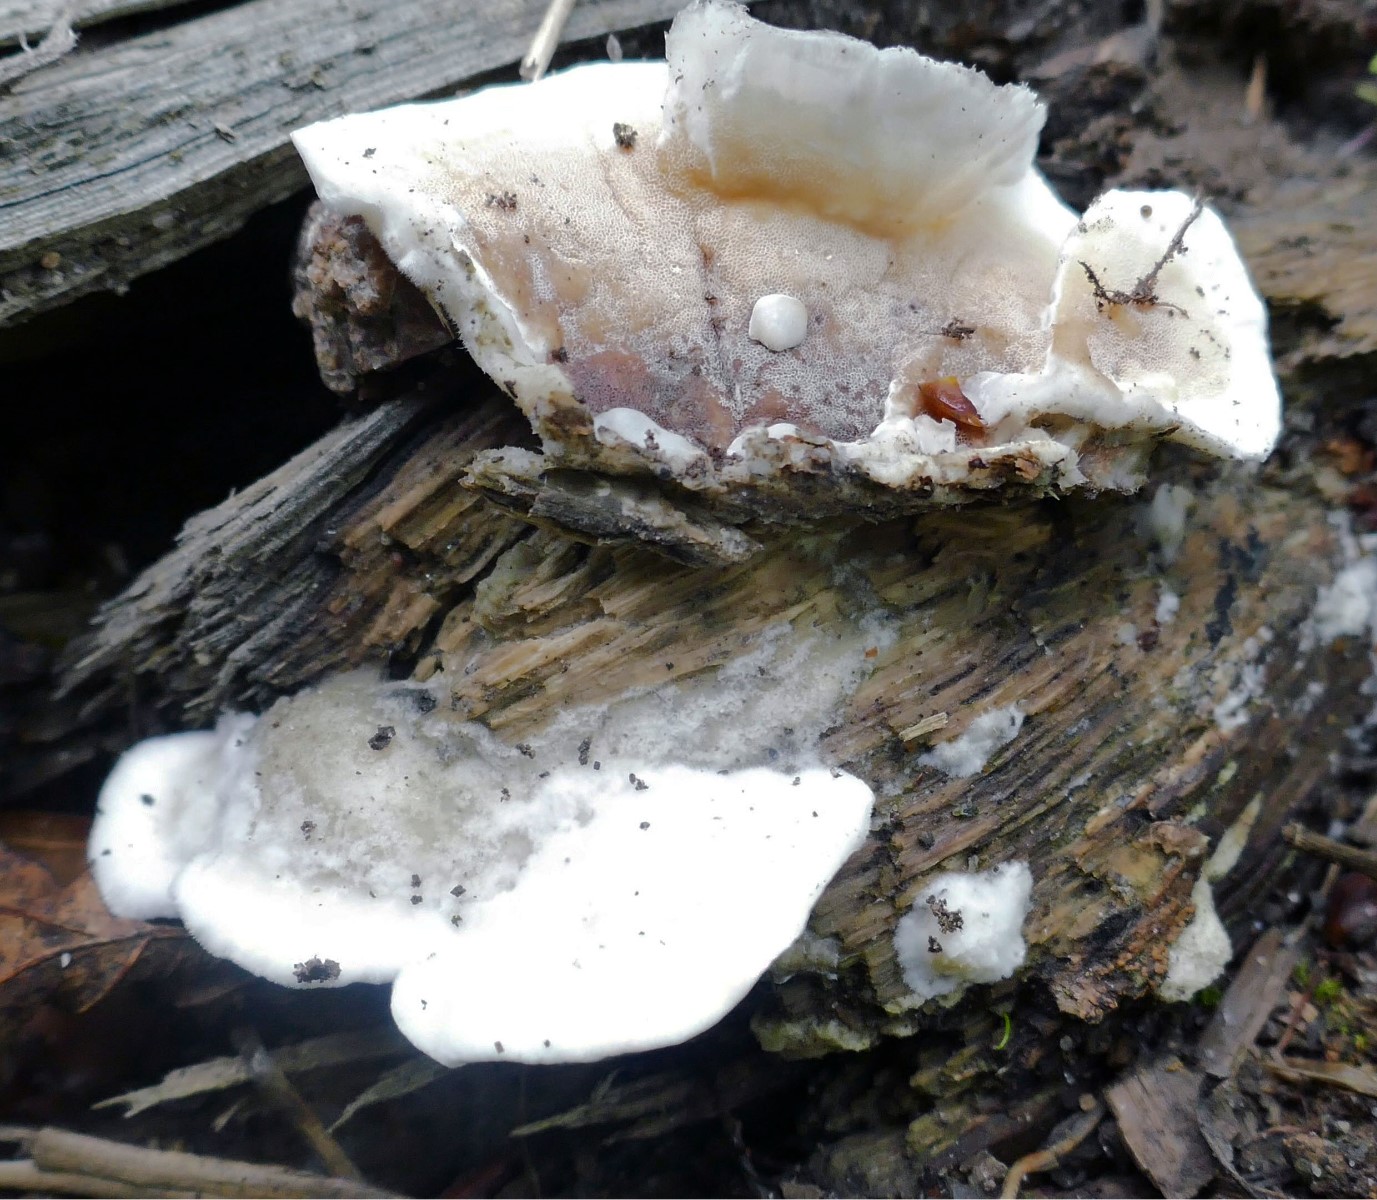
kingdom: Fungi
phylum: Basidiomycota
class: Agaricomycetes
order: Polyporales
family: Irpicaceae
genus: Vitreoporus
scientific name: Vitreoporus dichrous
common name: tofarvet foldporesvamp
